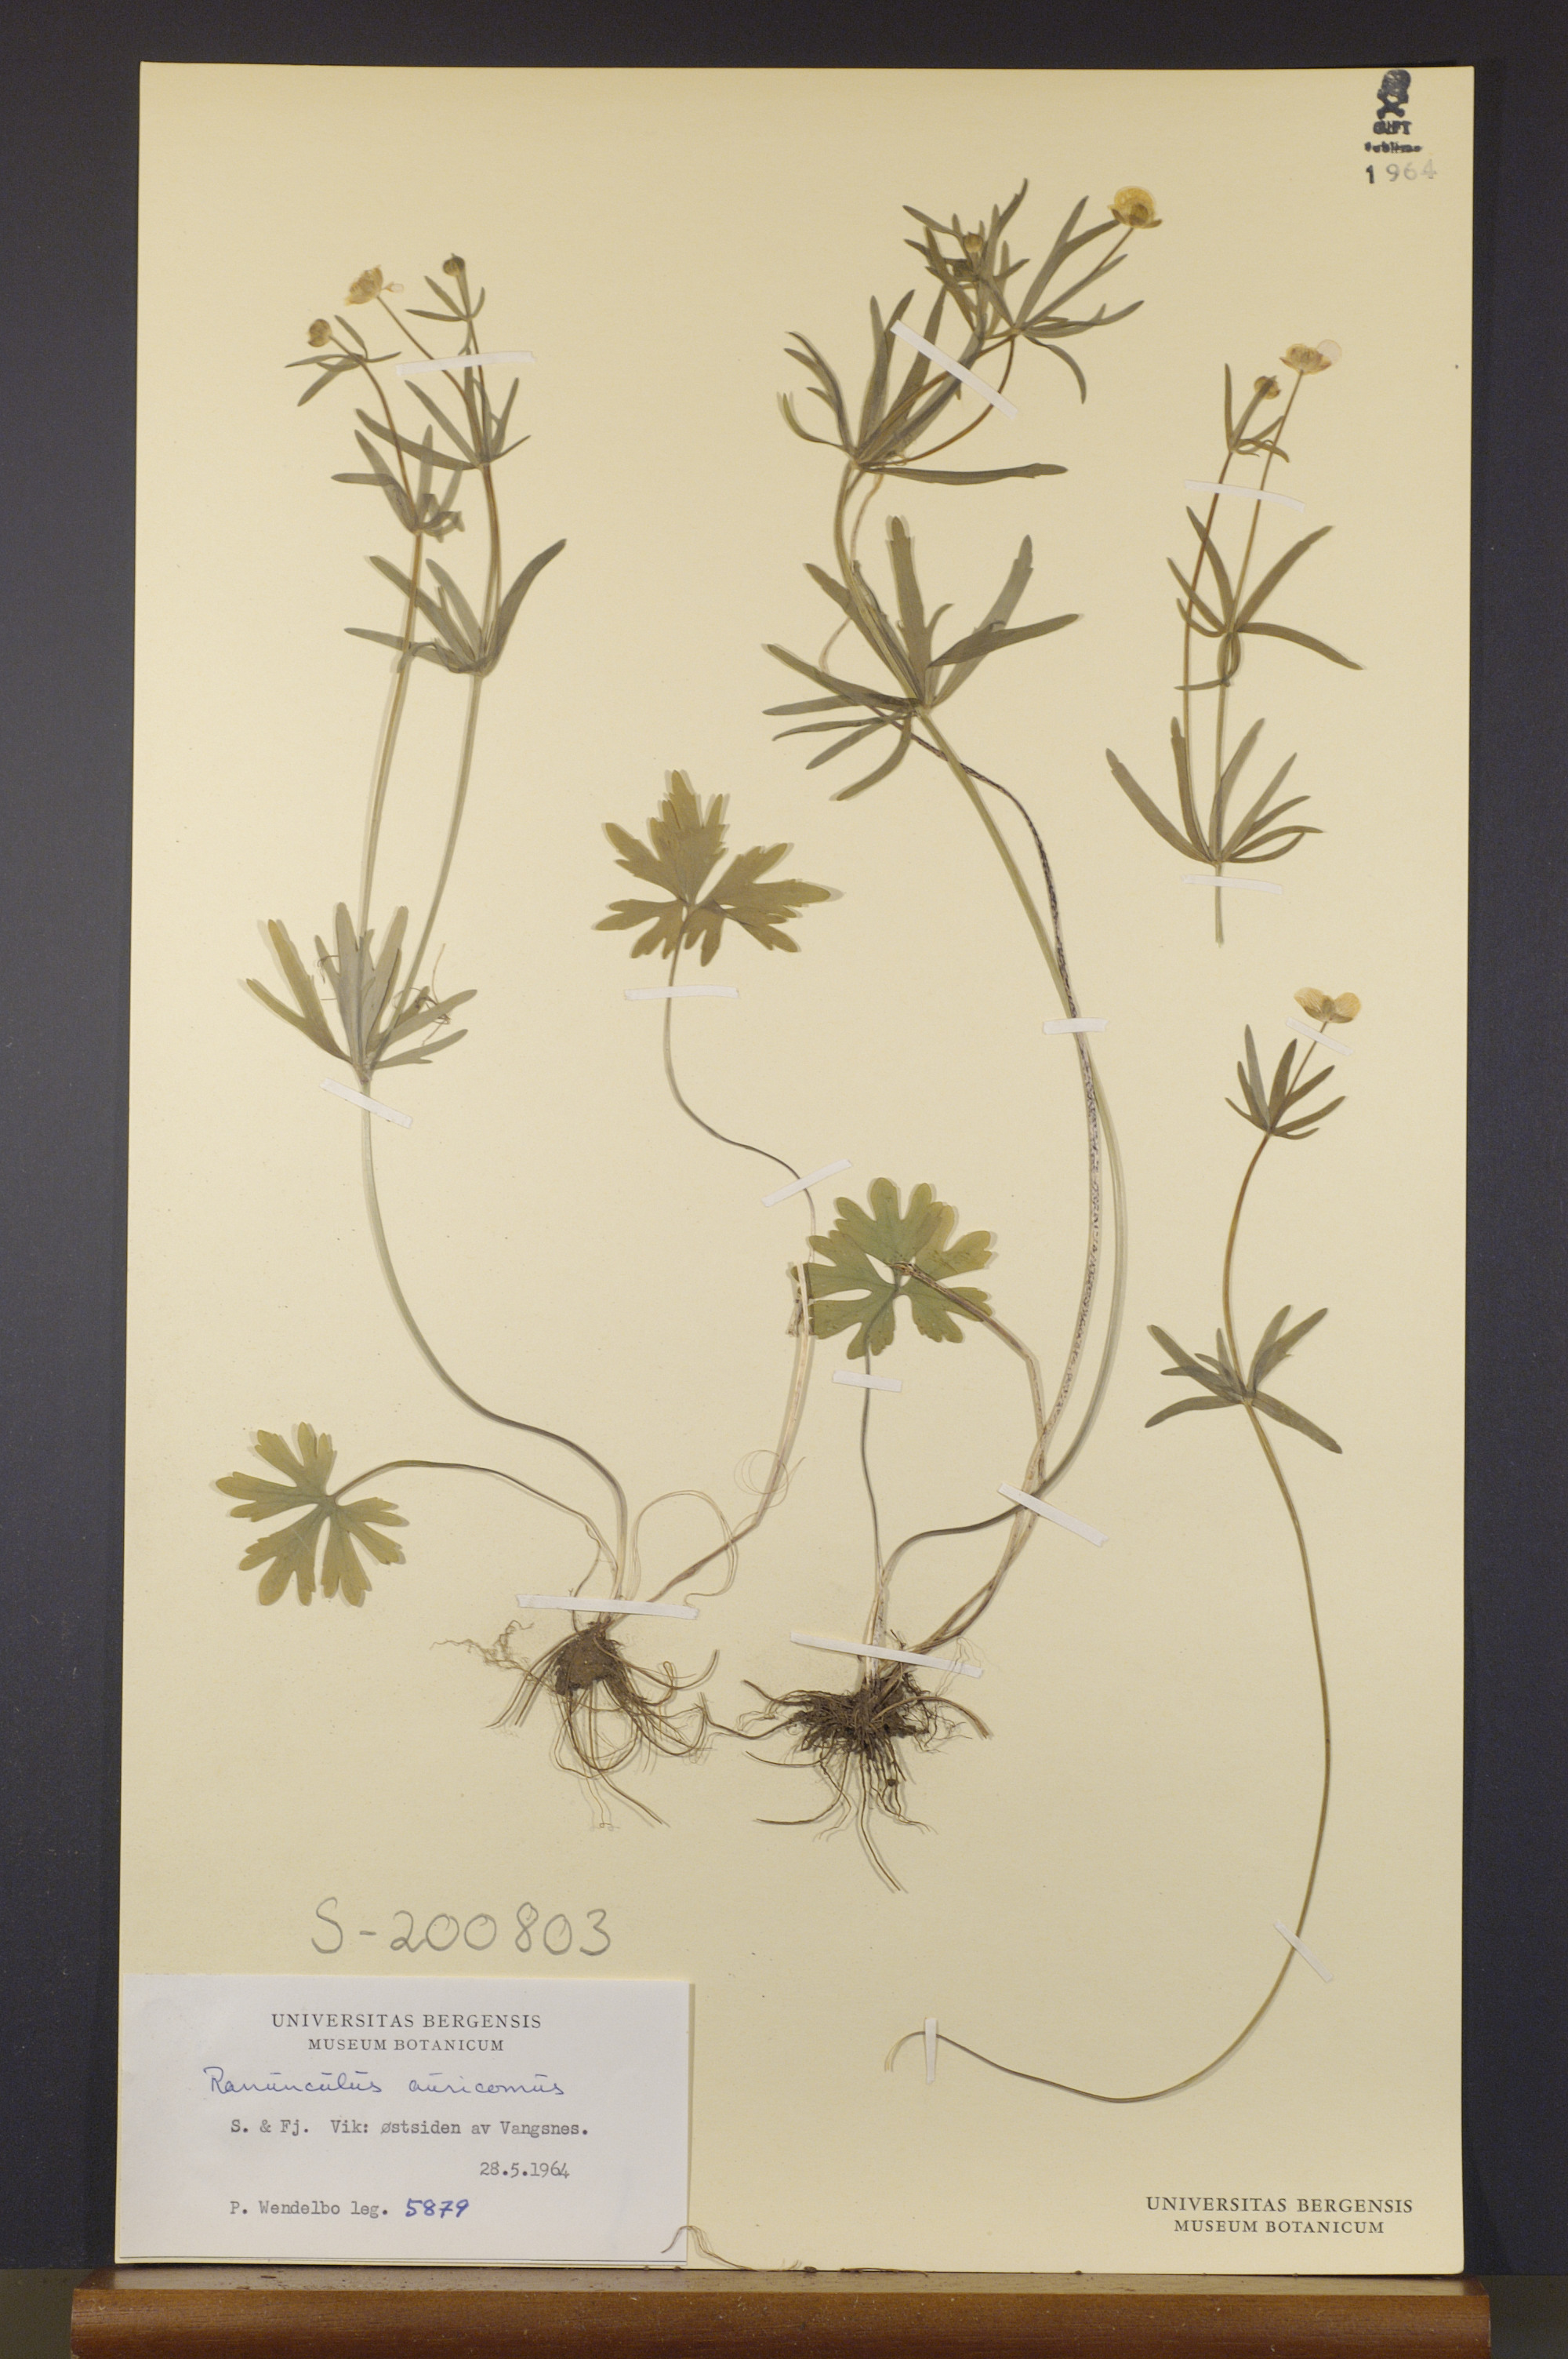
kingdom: Plantae
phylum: Tracheophyta
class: Magnoliopsida
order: Ranunculales
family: Ranunculaceae
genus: Ranunculus
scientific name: Ranunculus auricomus
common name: Goldilocks buttercup
